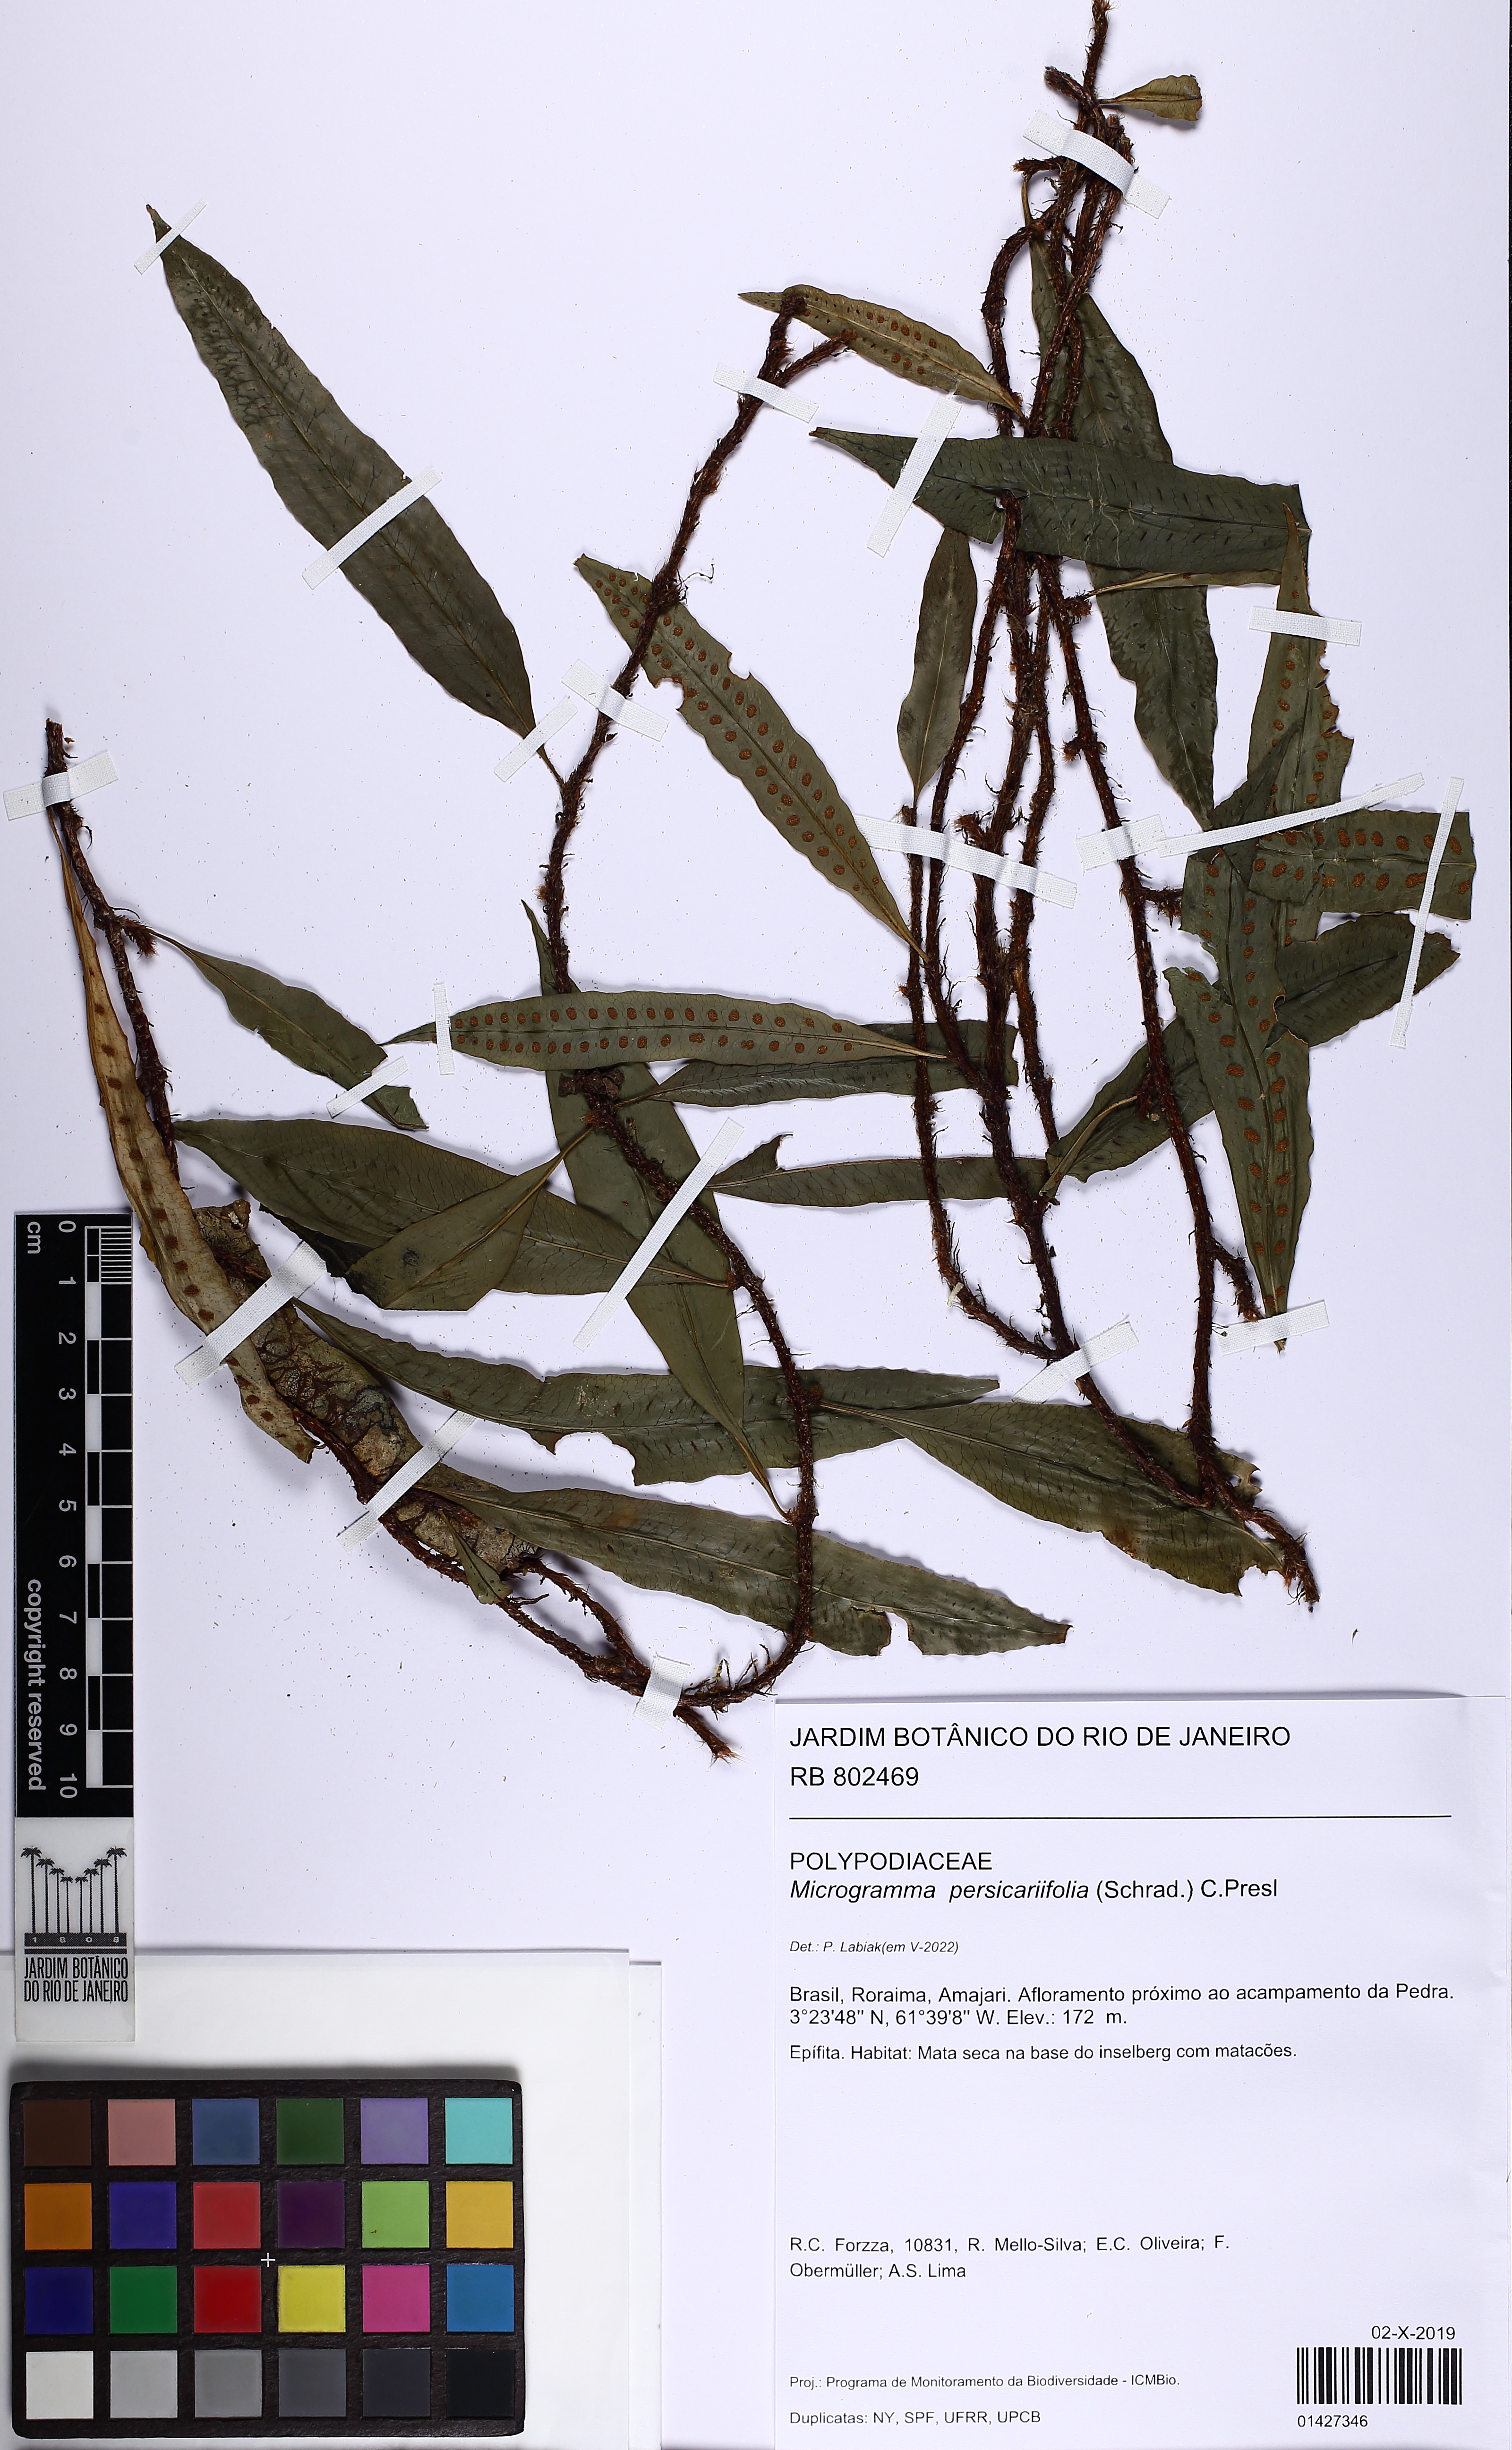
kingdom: Plantae
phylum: Tracheophyta
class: Polypodiopsida
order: Polypodiales
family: Polypodiaceae
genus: Microgramma
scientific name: Microgramma persicariifolia
